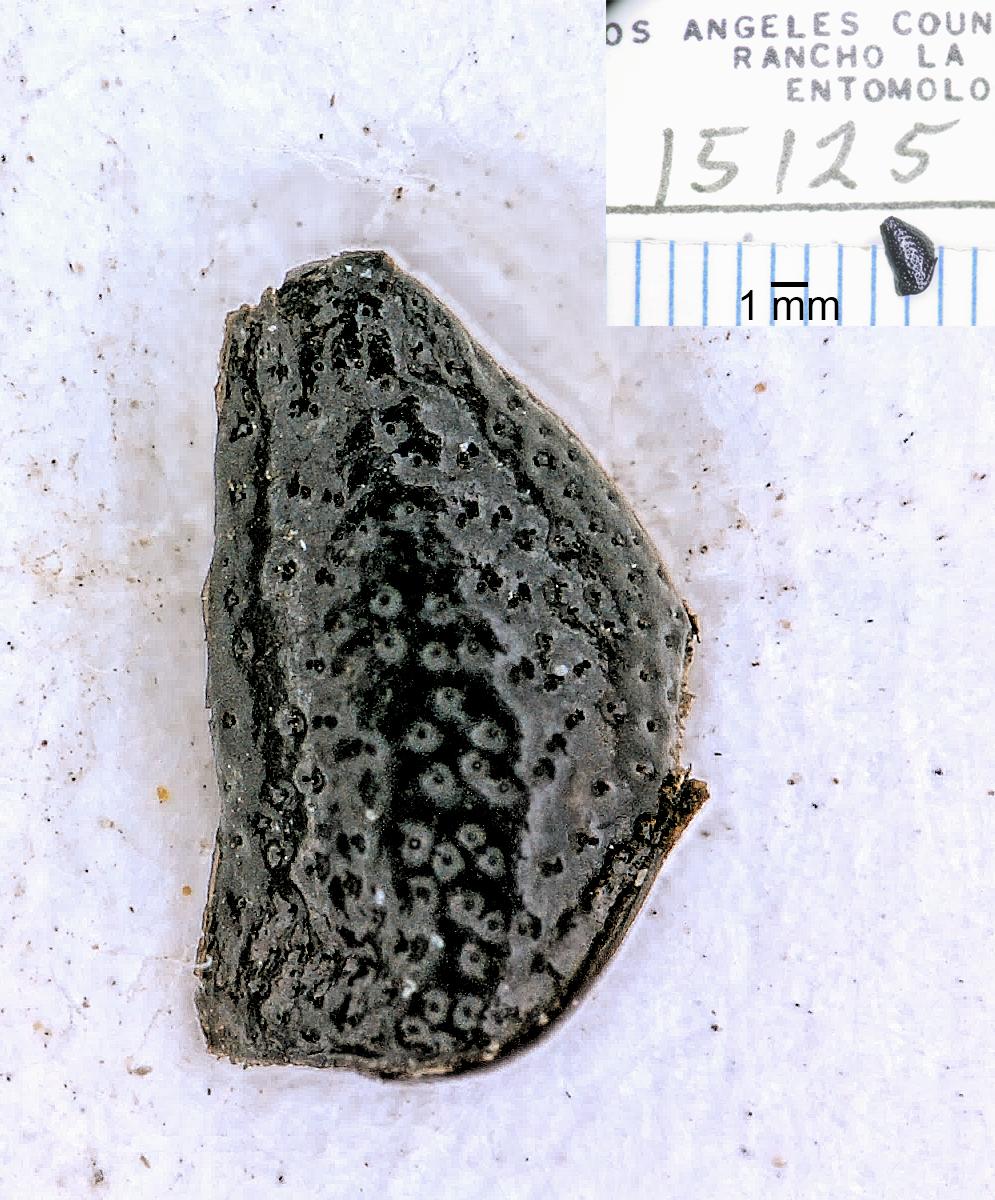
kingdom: Animalia
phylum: Arthropoda
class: Insecta
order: Coleoptera
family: Carabidae
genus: Dicheirus
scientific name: Dicheirus
